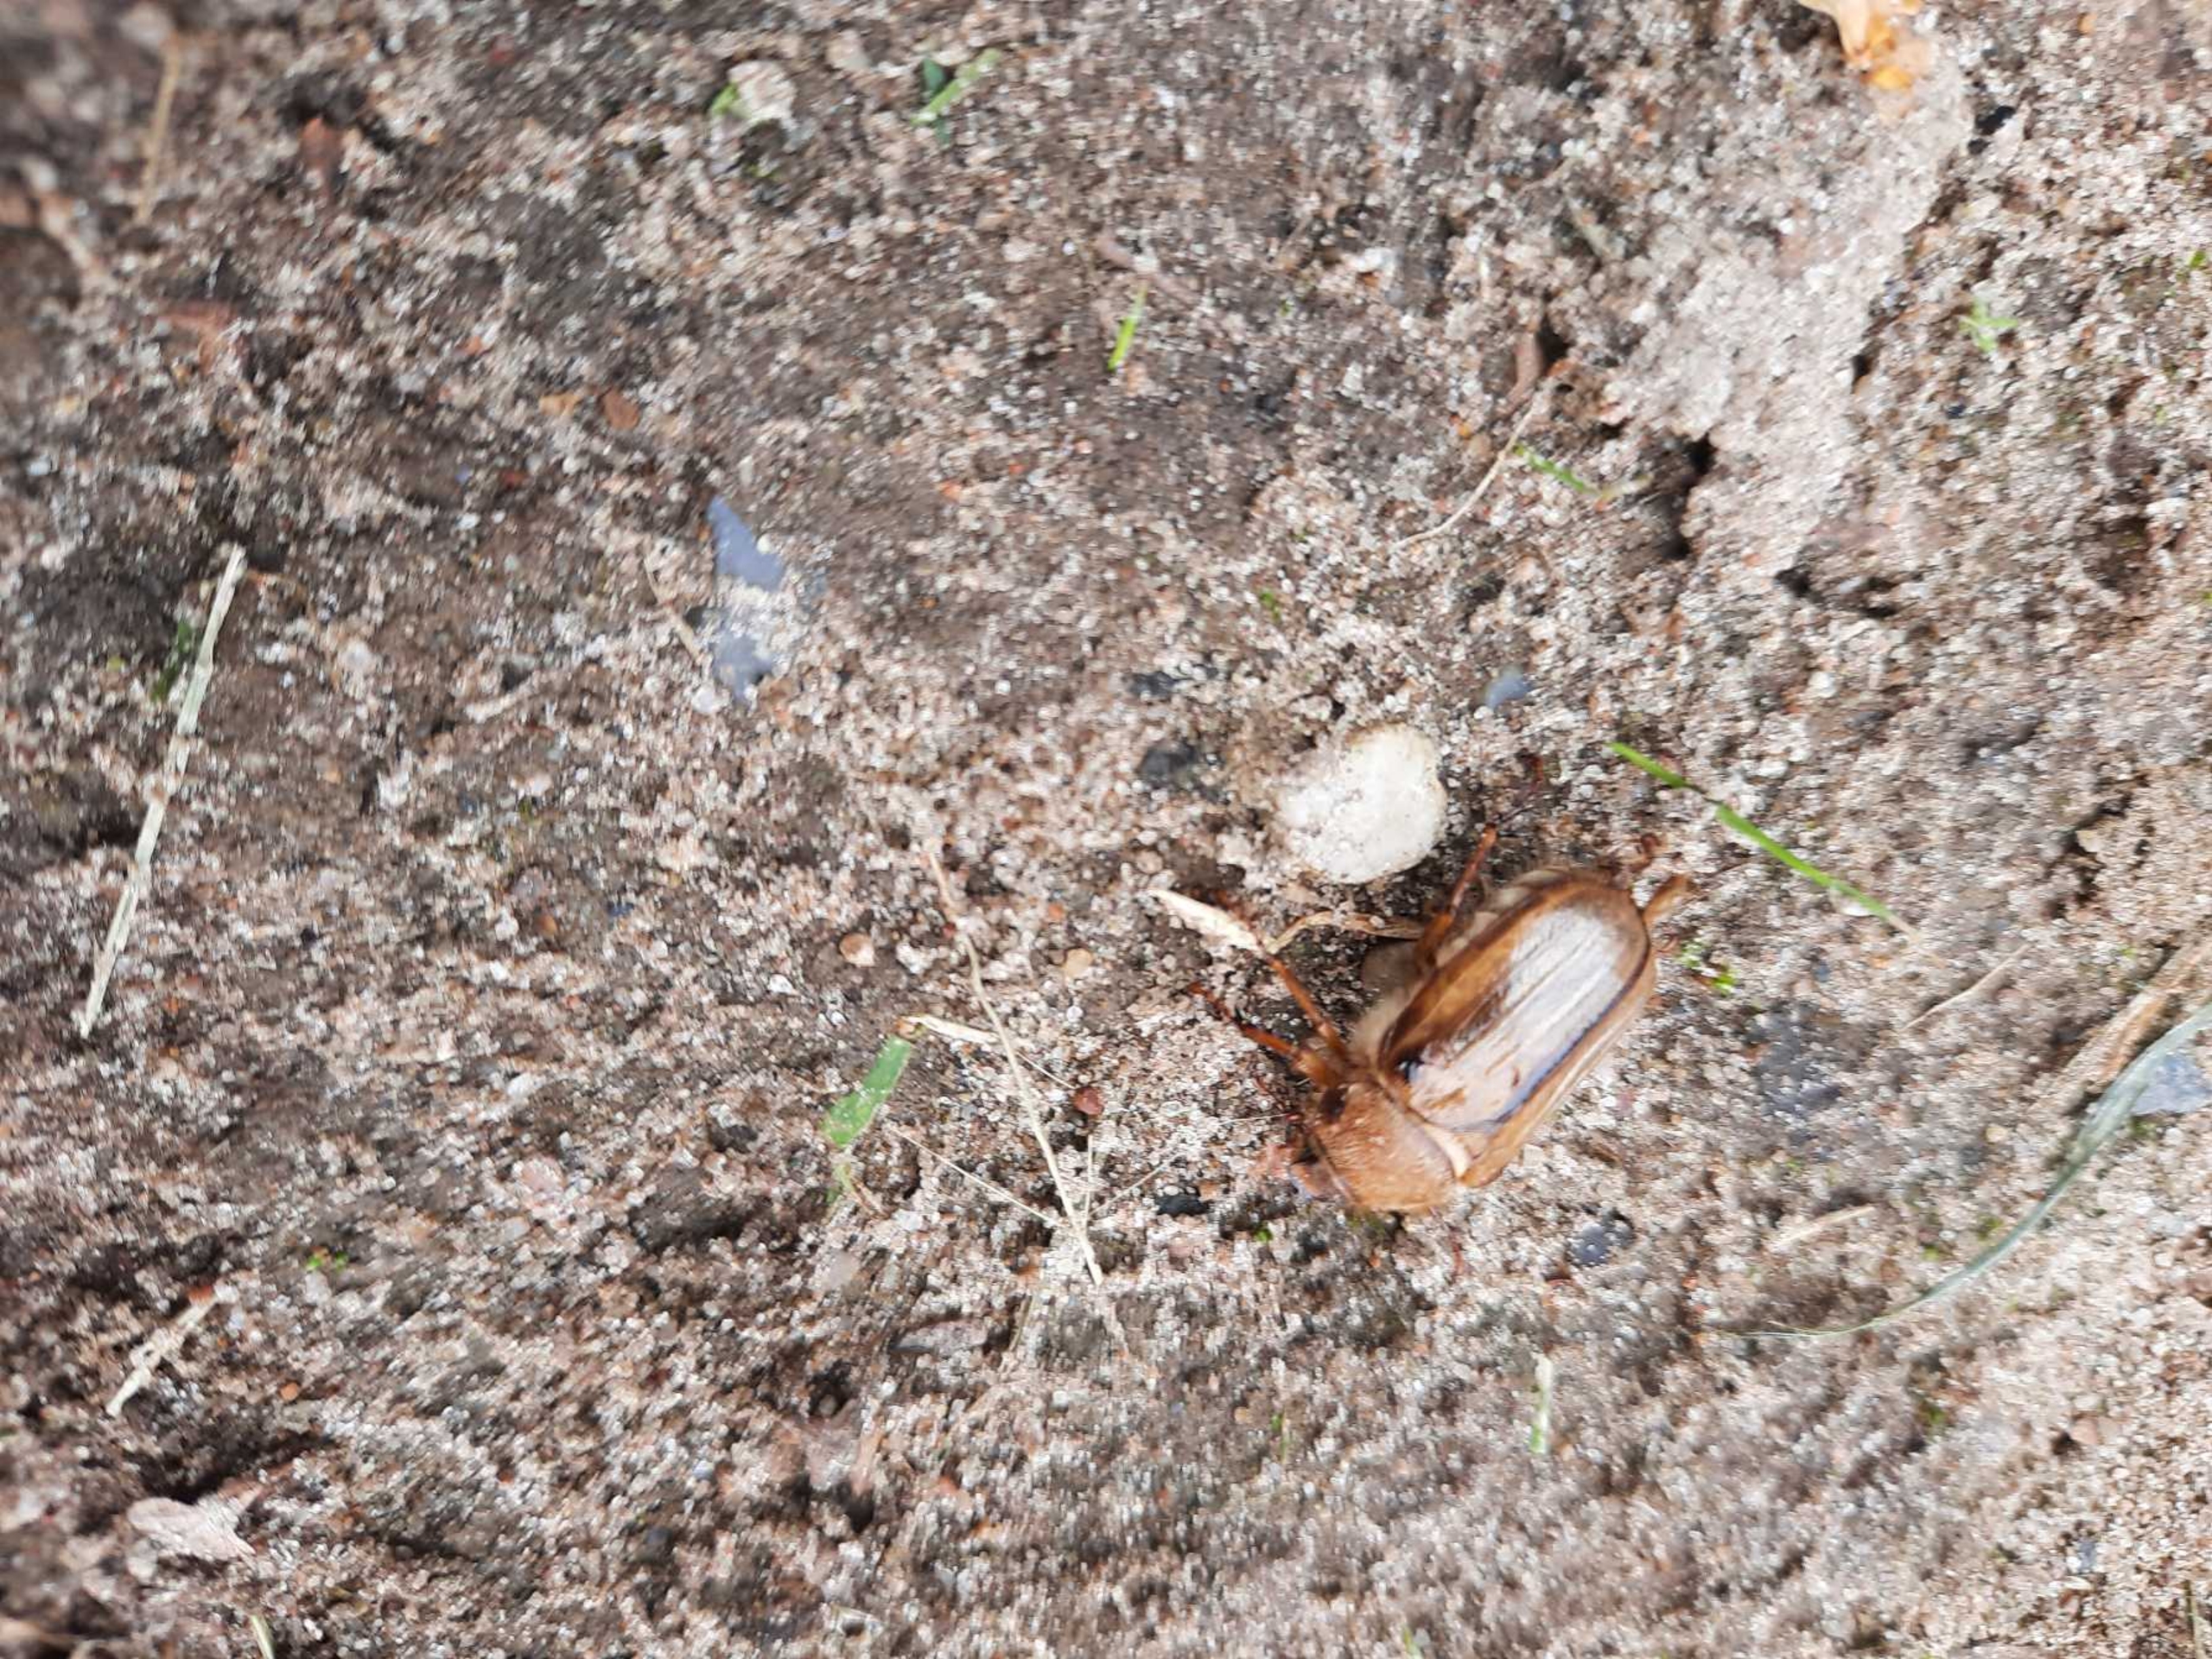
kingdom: Animalia
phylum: Arthropoda
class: Insecta
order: Coleoptera
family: Scarabaeidae
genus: Amphimallon
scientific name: Amphimallon solstitiale
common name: Sankthansoldenborre
